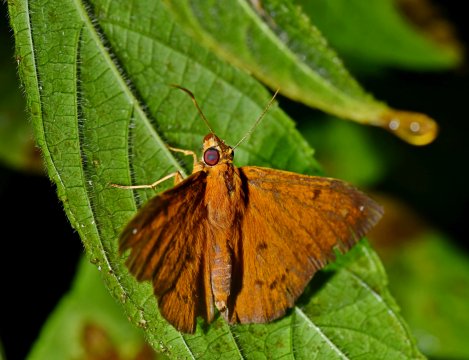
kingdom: Animalia
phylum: Arthropoda
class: Insecta
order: Lepidoptera
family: Hesperiidae
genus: Salatis
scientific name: Salatis canalis
